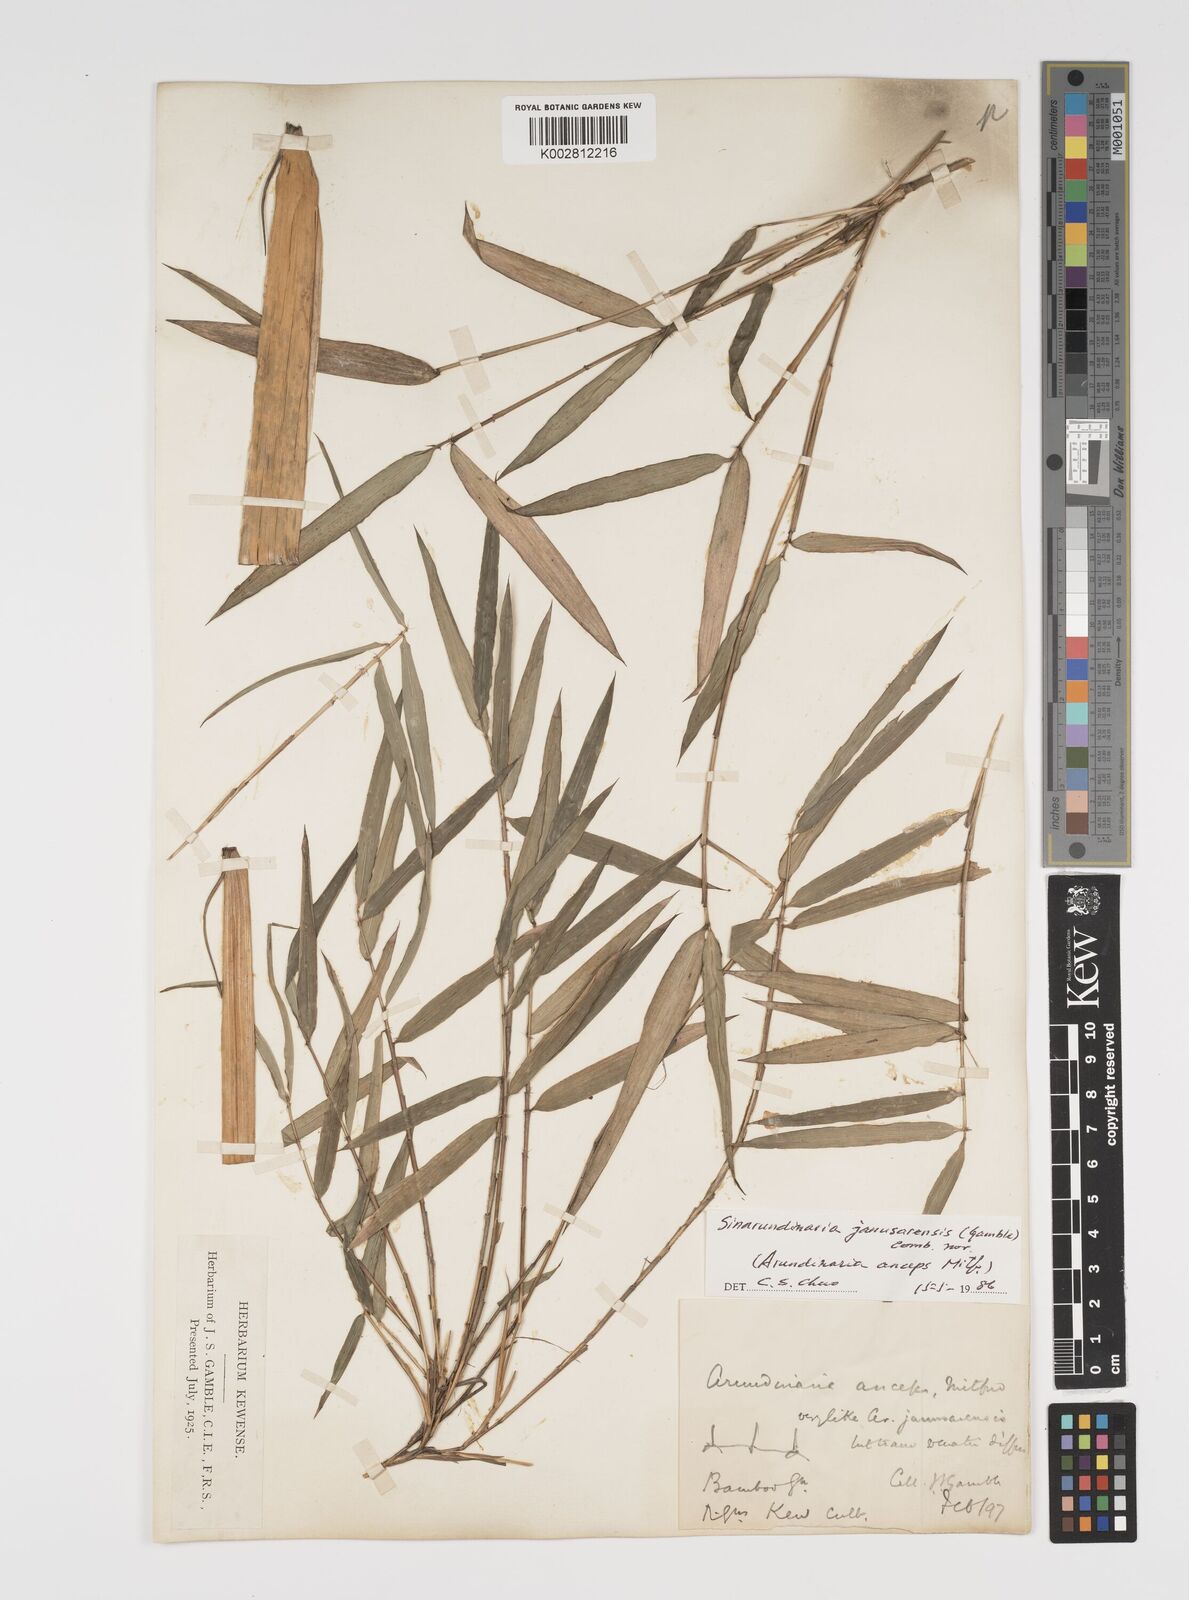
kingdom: Plantae
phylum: Tracheophyta
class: Liliopsida
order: Poales
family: Poaceae
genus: Yushania
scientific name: Yushania anceps
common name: Indian fountain-bamboo
